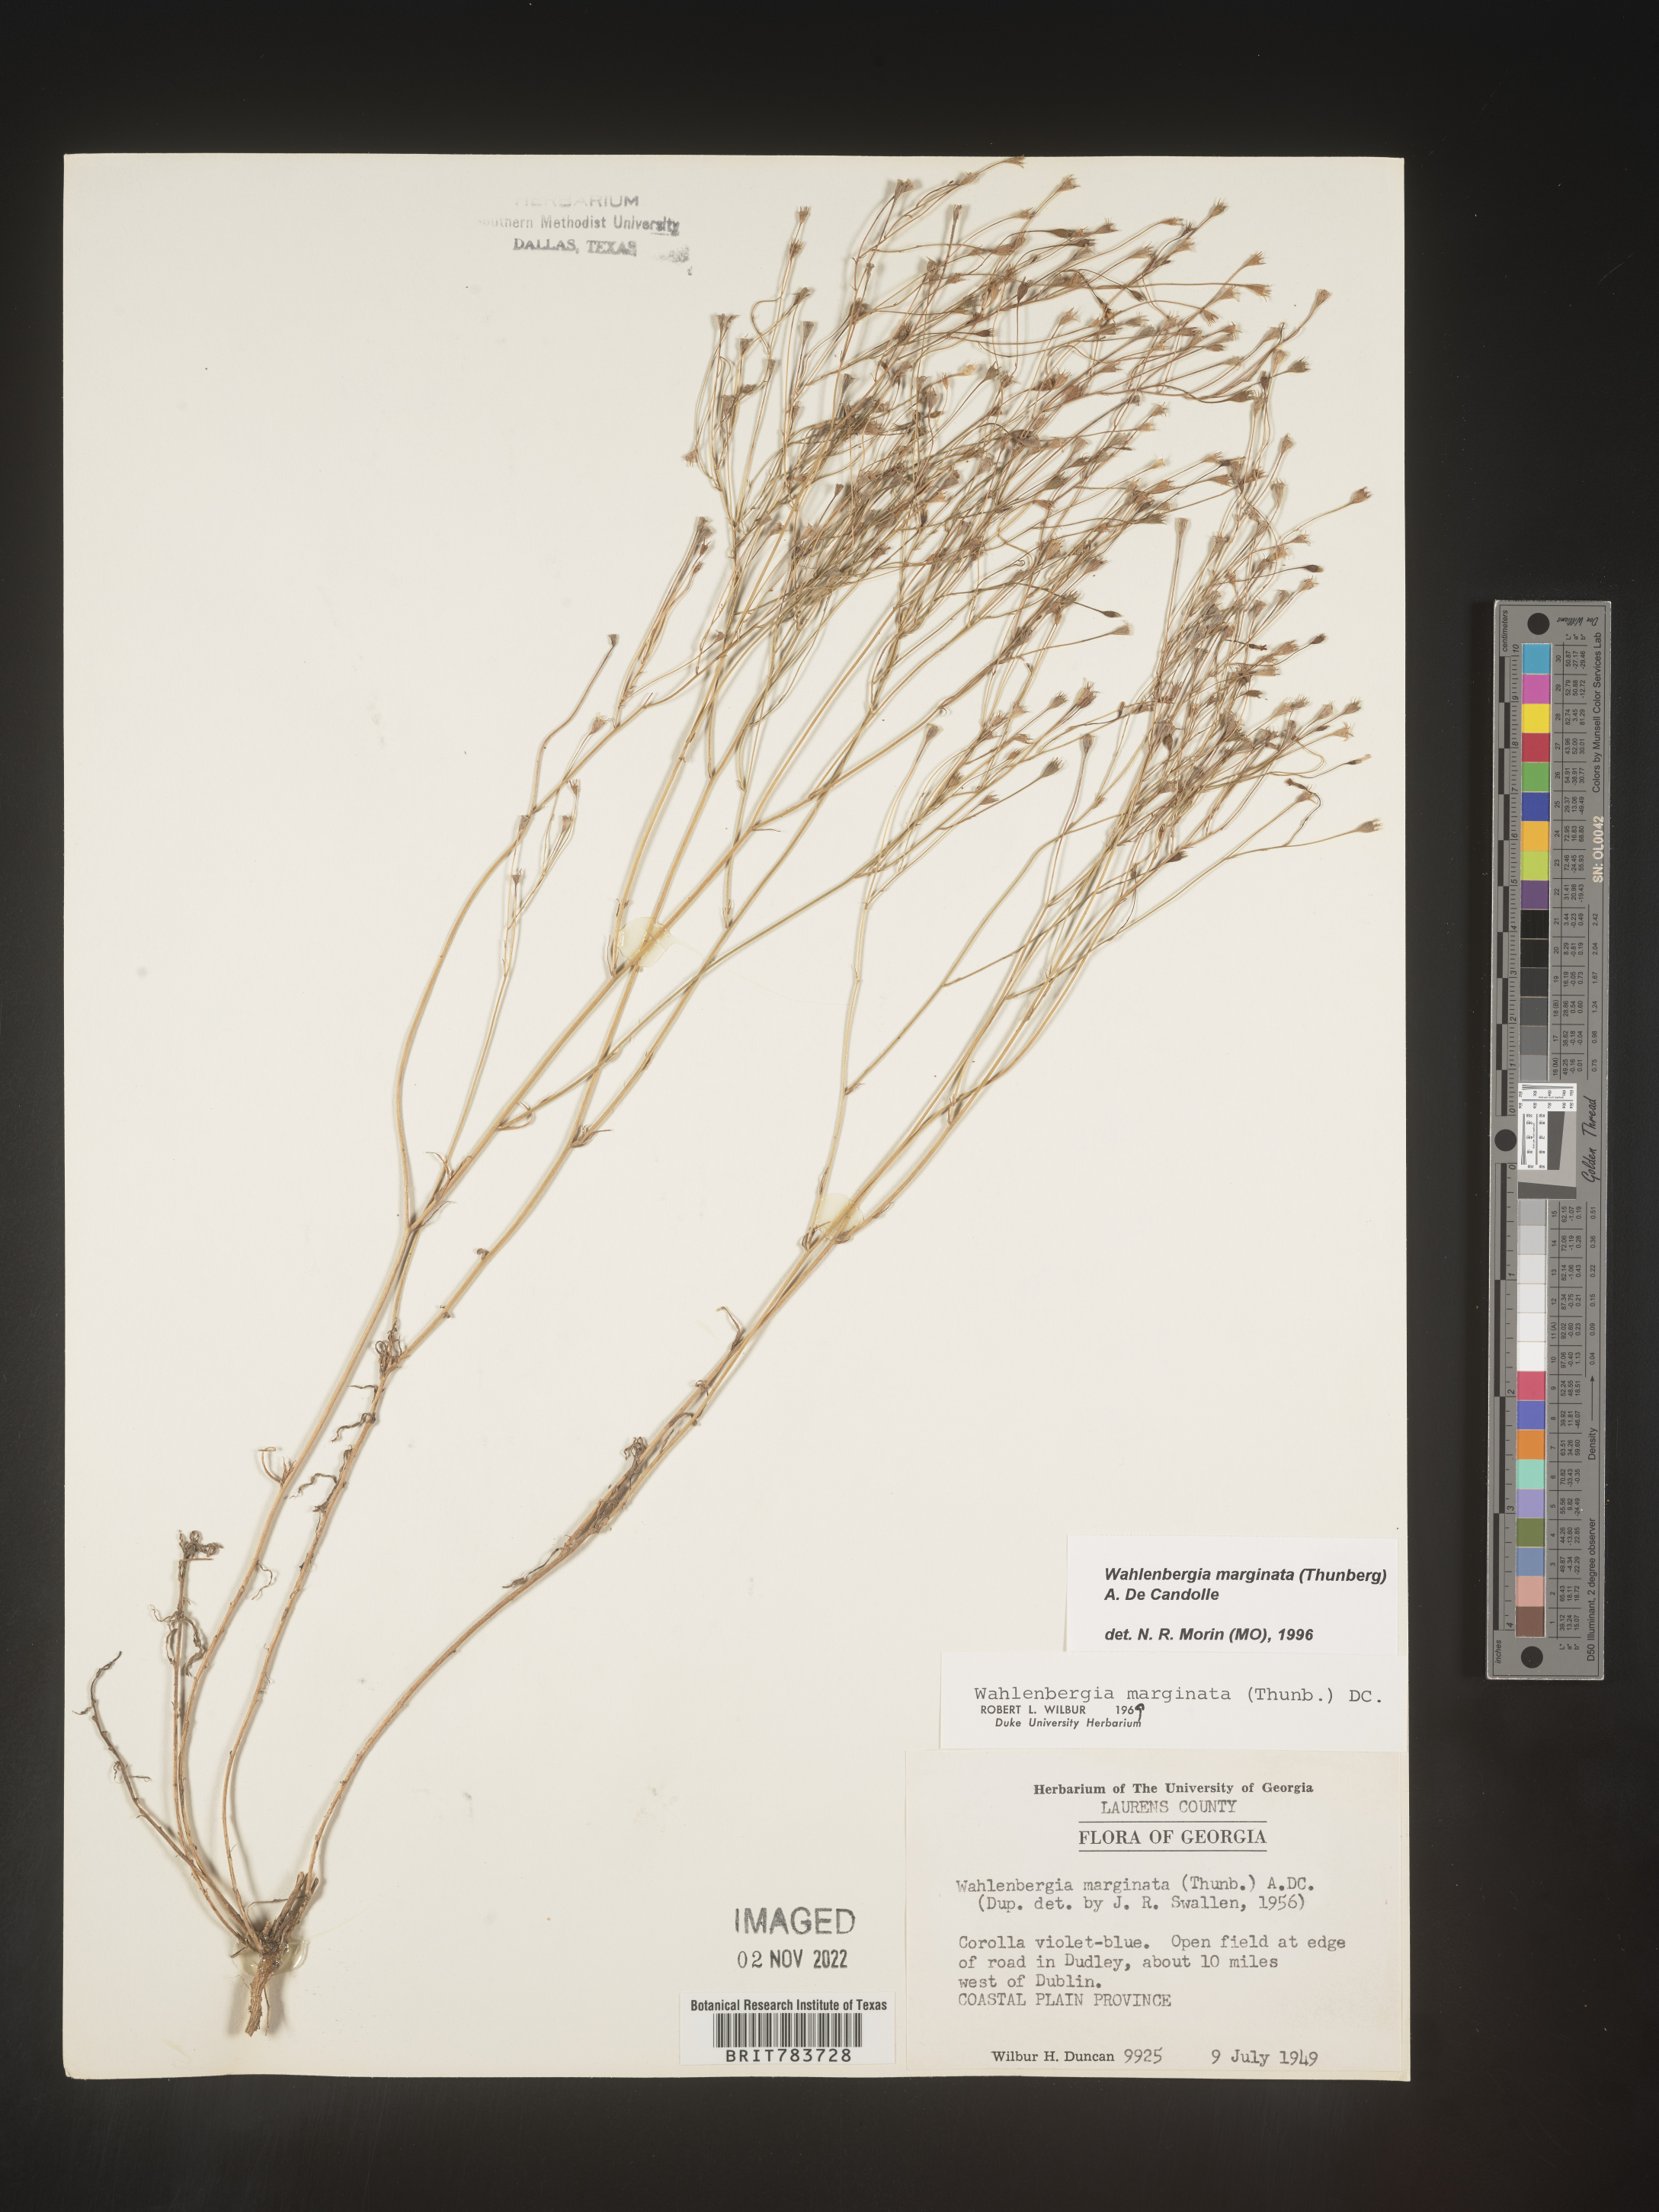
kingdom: Plantae
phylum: Tracheophyta
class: Magnoliopsida
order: Asterales
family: Campanulaceae
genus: Wahlenbergia
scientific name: Wahlenbergia marginata
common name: Southern rockbell
